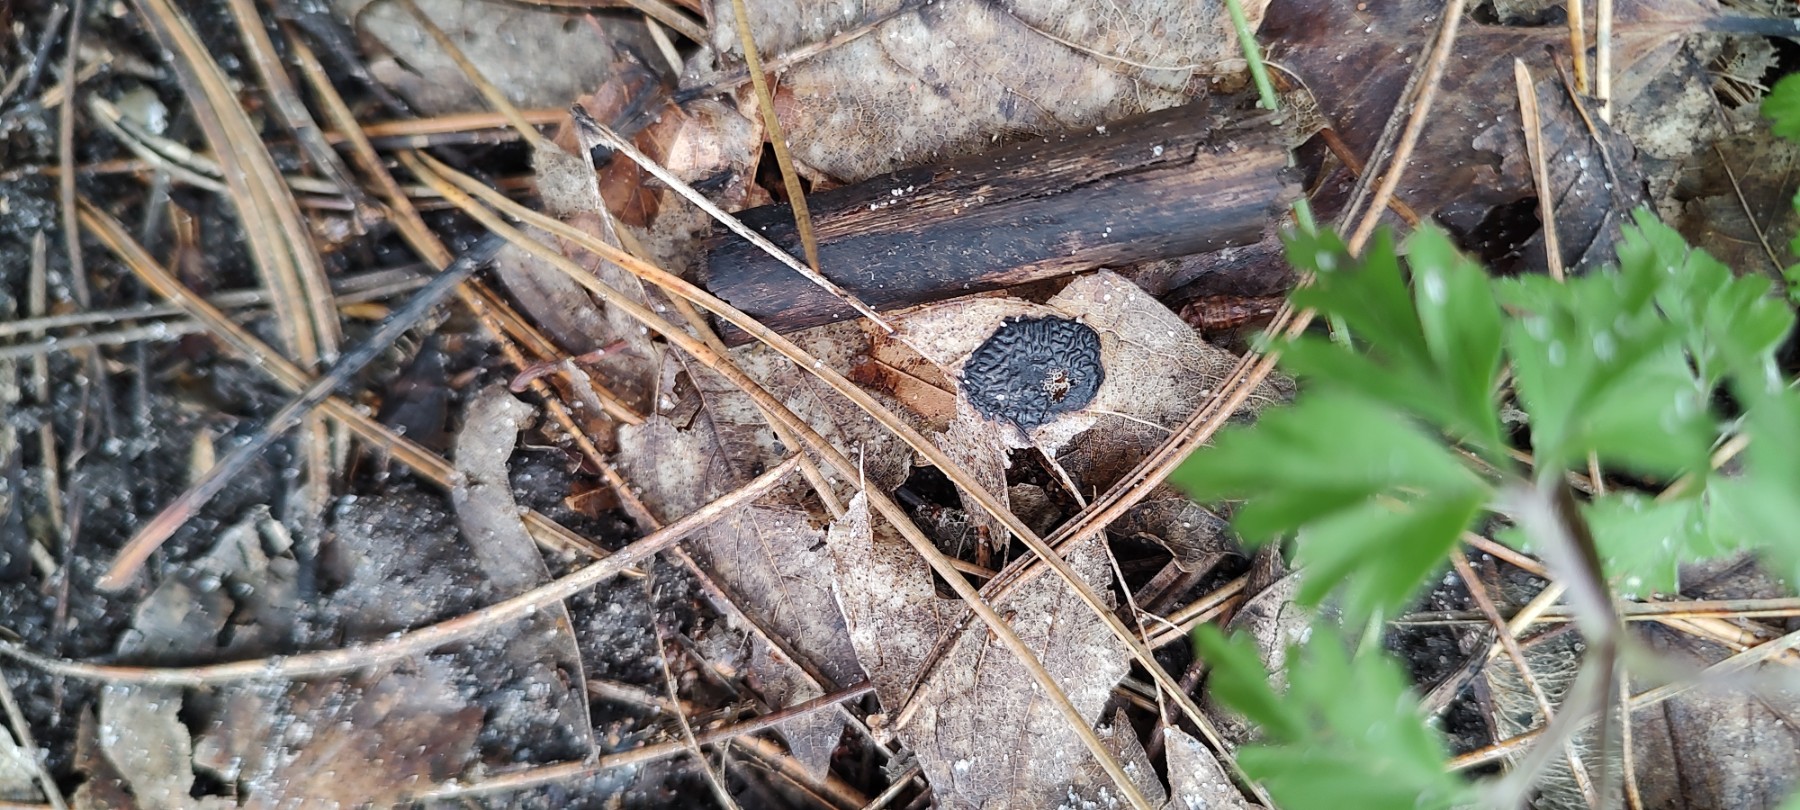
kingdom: Fungi
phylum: Ascomycota
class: Leotiomycetes
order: Rhytismatales
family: Rhytismataceae
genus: Rhytisma
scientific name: Rhytisma acerinum
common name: ahorn-rynkeplet
